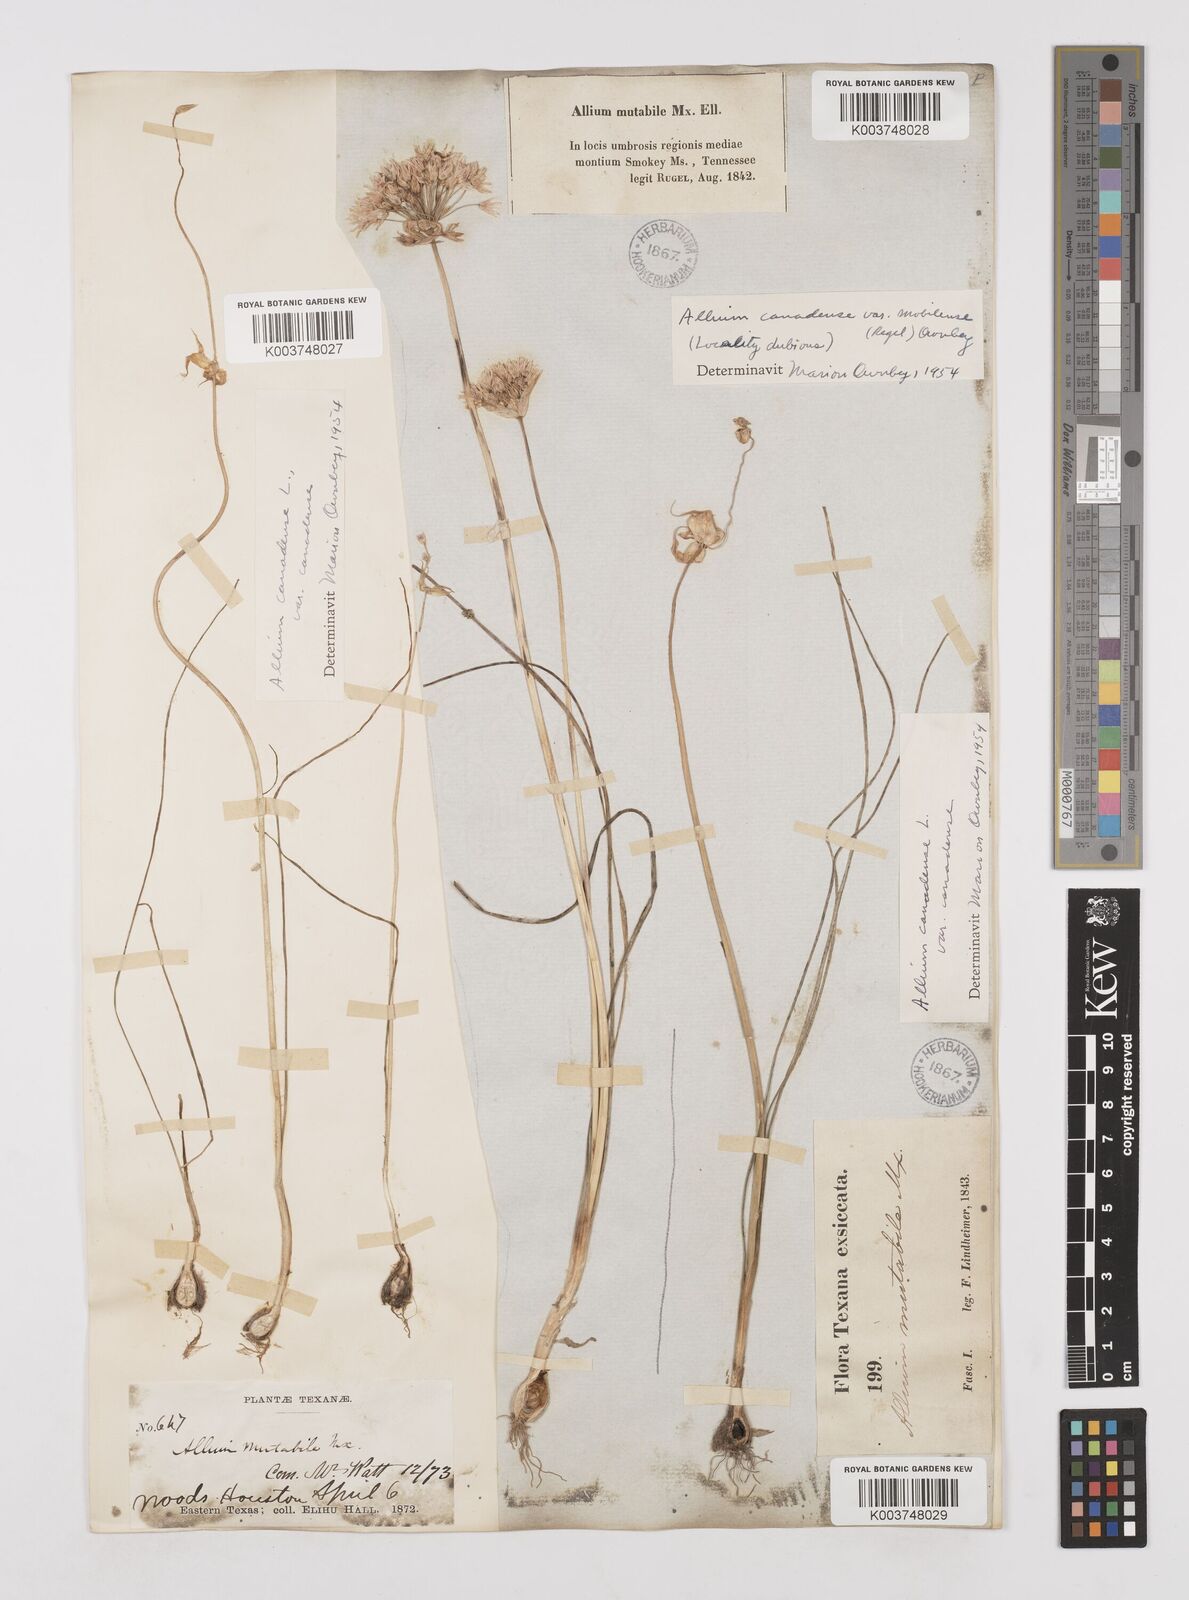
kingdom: Plantae
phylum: Tracheophyta
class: Liliopsida
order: Asparagales
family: Amaryllidaceae
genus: Allium
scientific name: Allium canadense
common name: Meadow garlic
